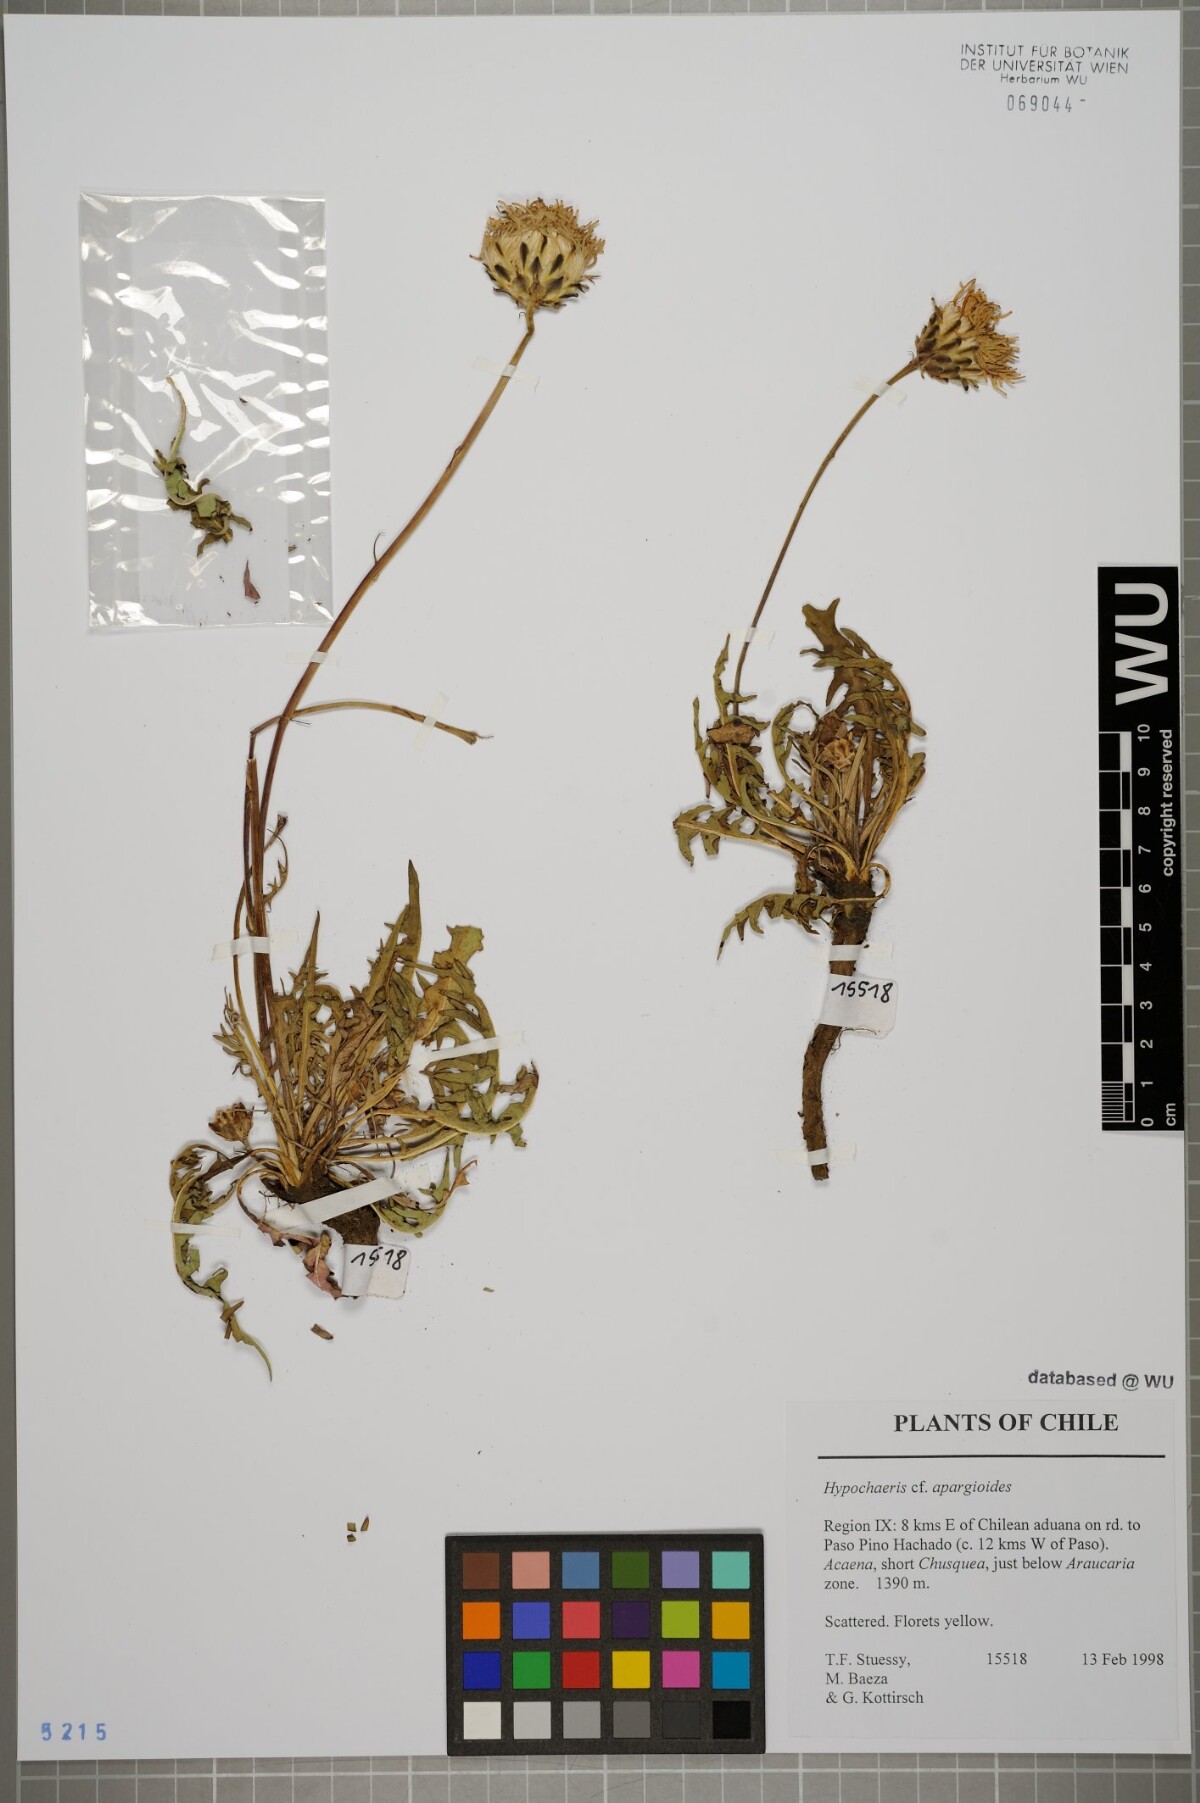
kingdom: Plantae
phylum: Tracheophyta
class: Magnoliopsida
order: Asterales
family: Asteraceae
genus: Hypochaeris
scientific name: Hypochaeris apargioides
